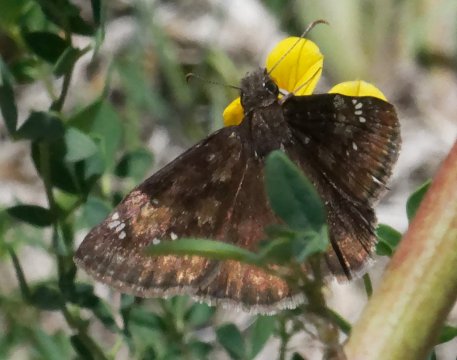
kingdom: Animalia
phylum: Arthropoda
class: Insecta
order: Lepidoptera
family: Hesperiidae
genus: Gesta
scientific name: Gesta
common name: Wild Indigo Duskywing
